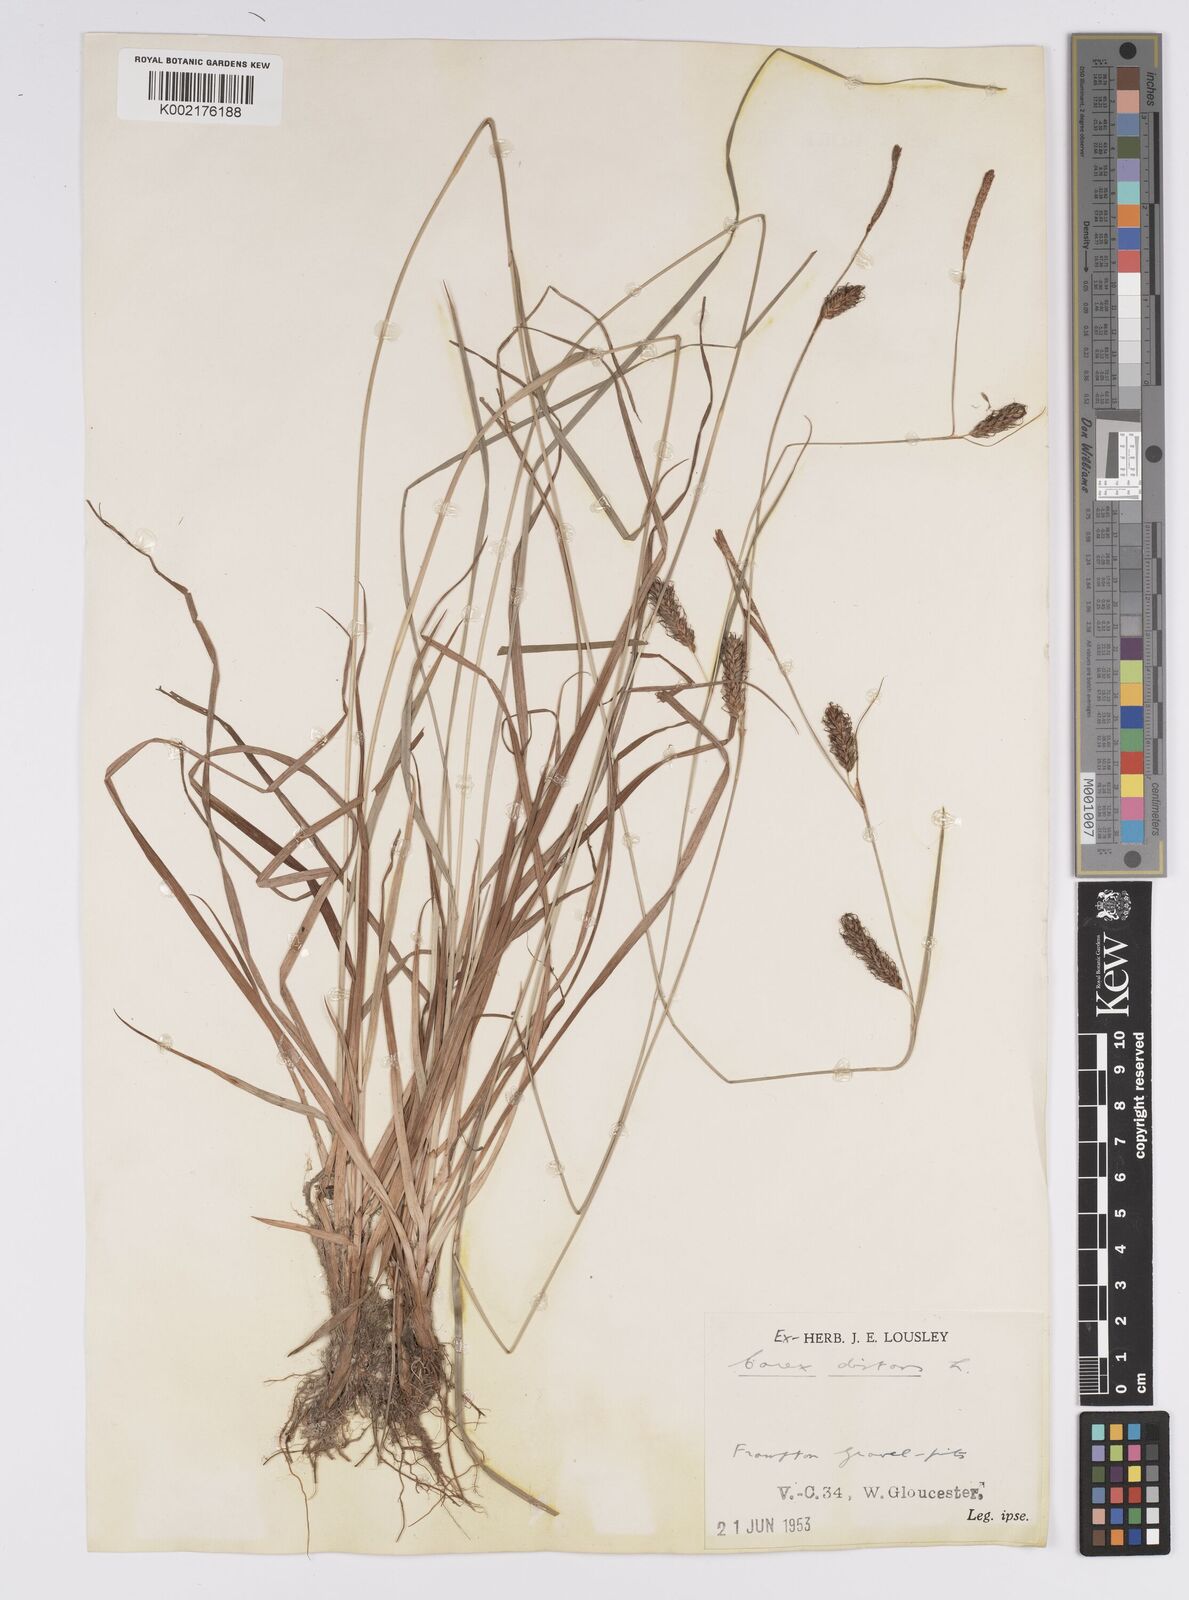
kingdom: Plantae
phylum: Tracheophyta
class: Liliopsida
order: Poales
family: Cyperaceae
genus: Carex
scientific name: Carex distans
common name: Distant sedge
